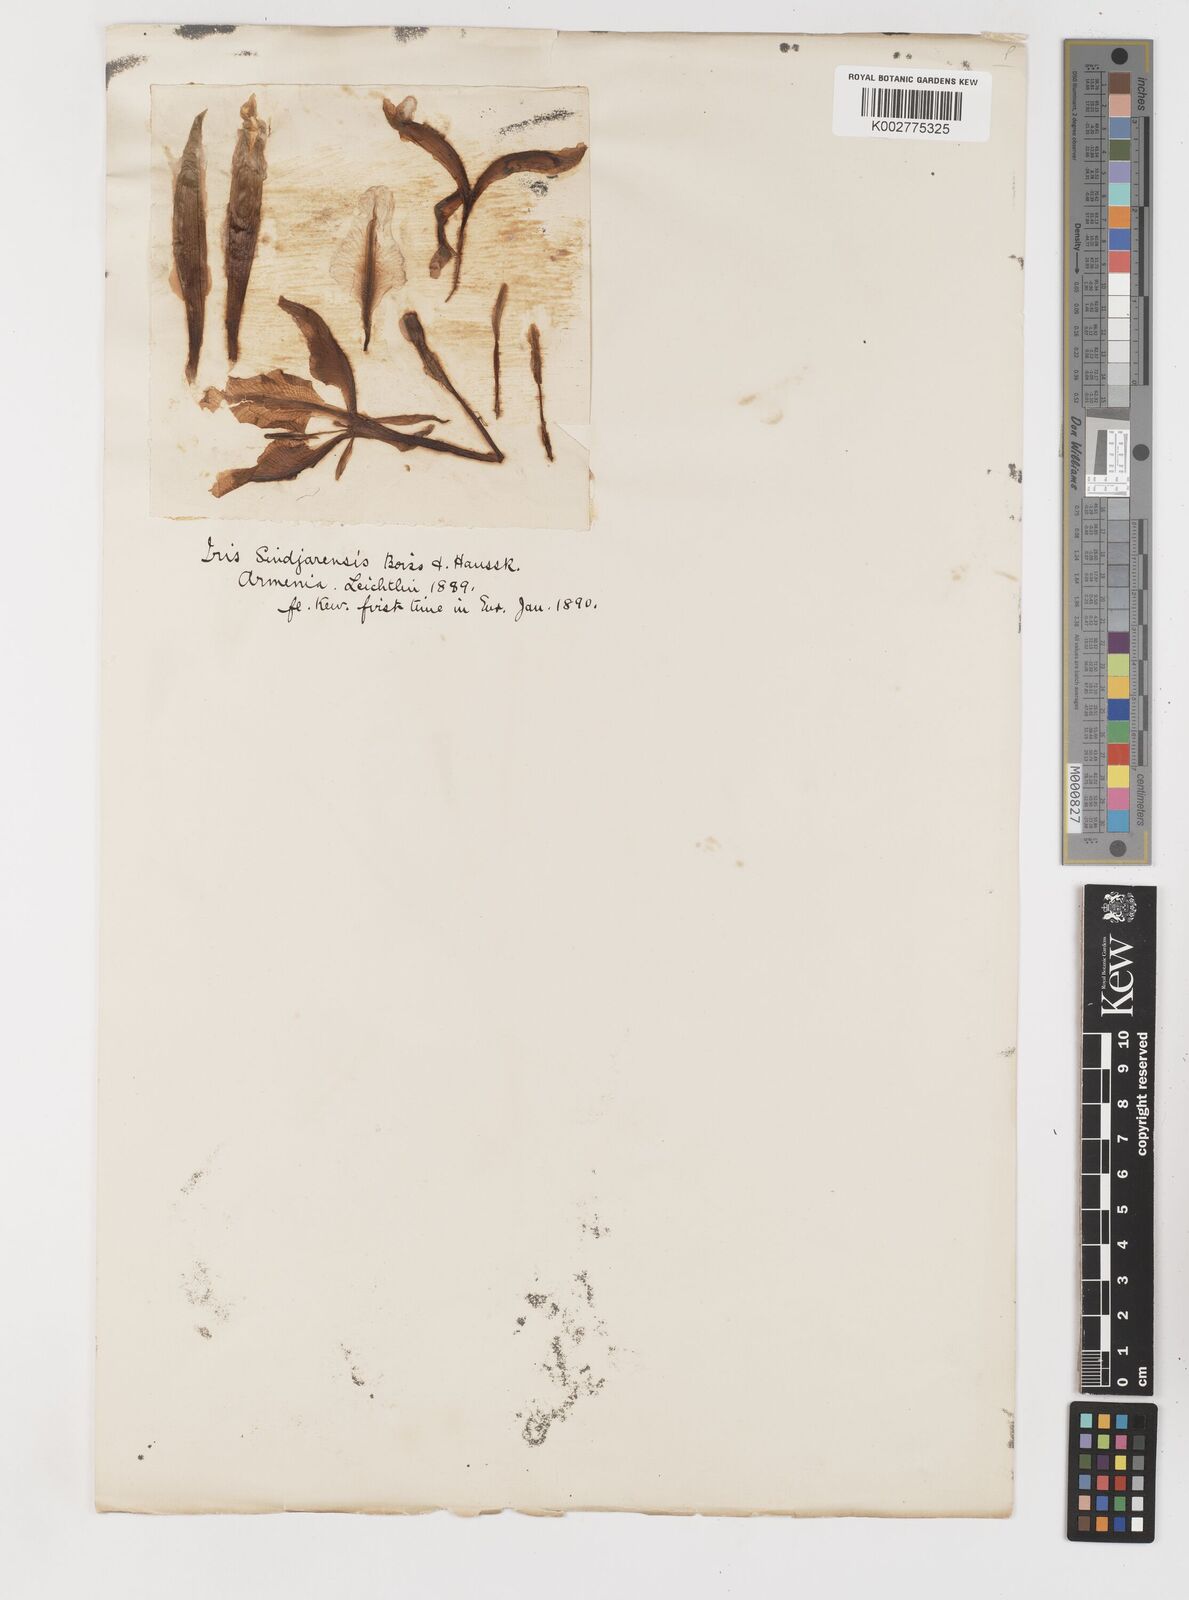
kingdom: Plantae
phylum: Tracheophyta
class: Liliopsida
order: Asparagales
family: Iridaceae
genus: Iris
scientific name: Iris aucheri
